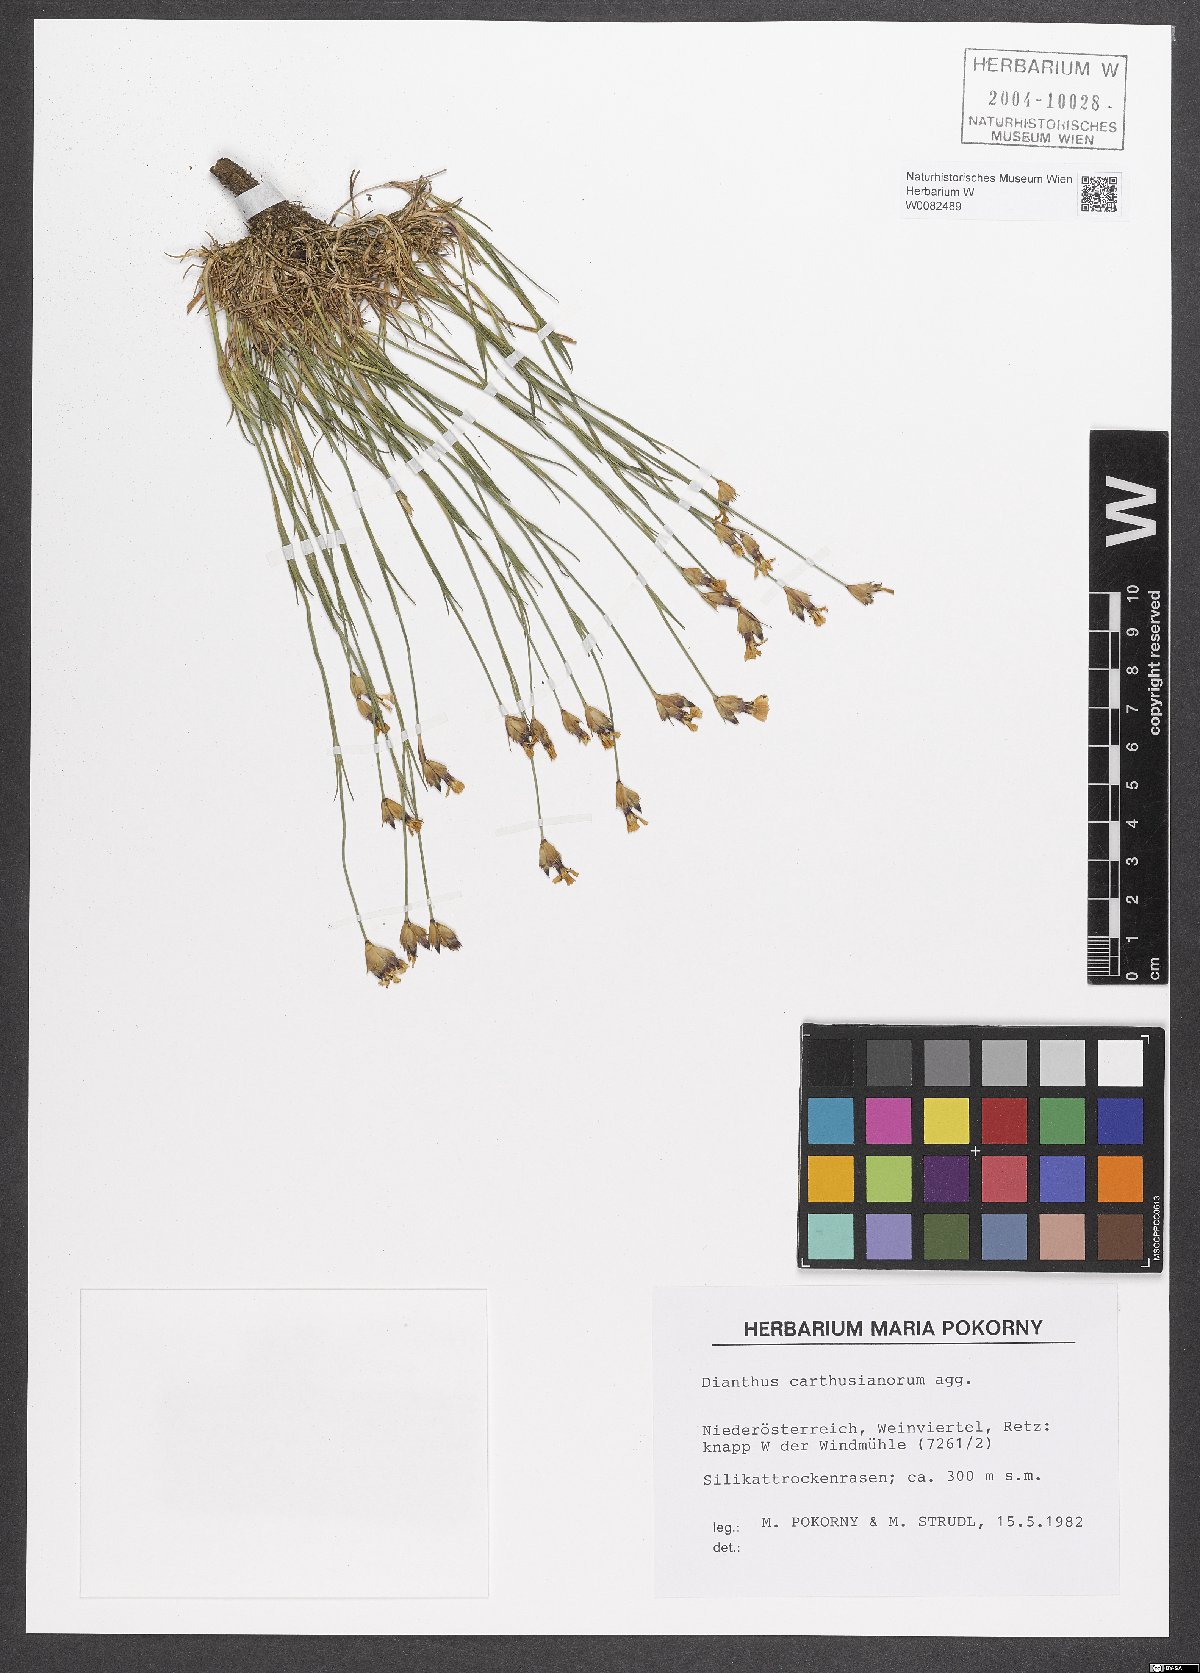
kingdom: Plantae
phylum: Tracheophyta
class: Magnoliopsida
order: Caryophyllales
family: Caryophyllaceae
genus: Dianthus
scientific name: Dianthus carthusianorum
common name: Carthusian pink
